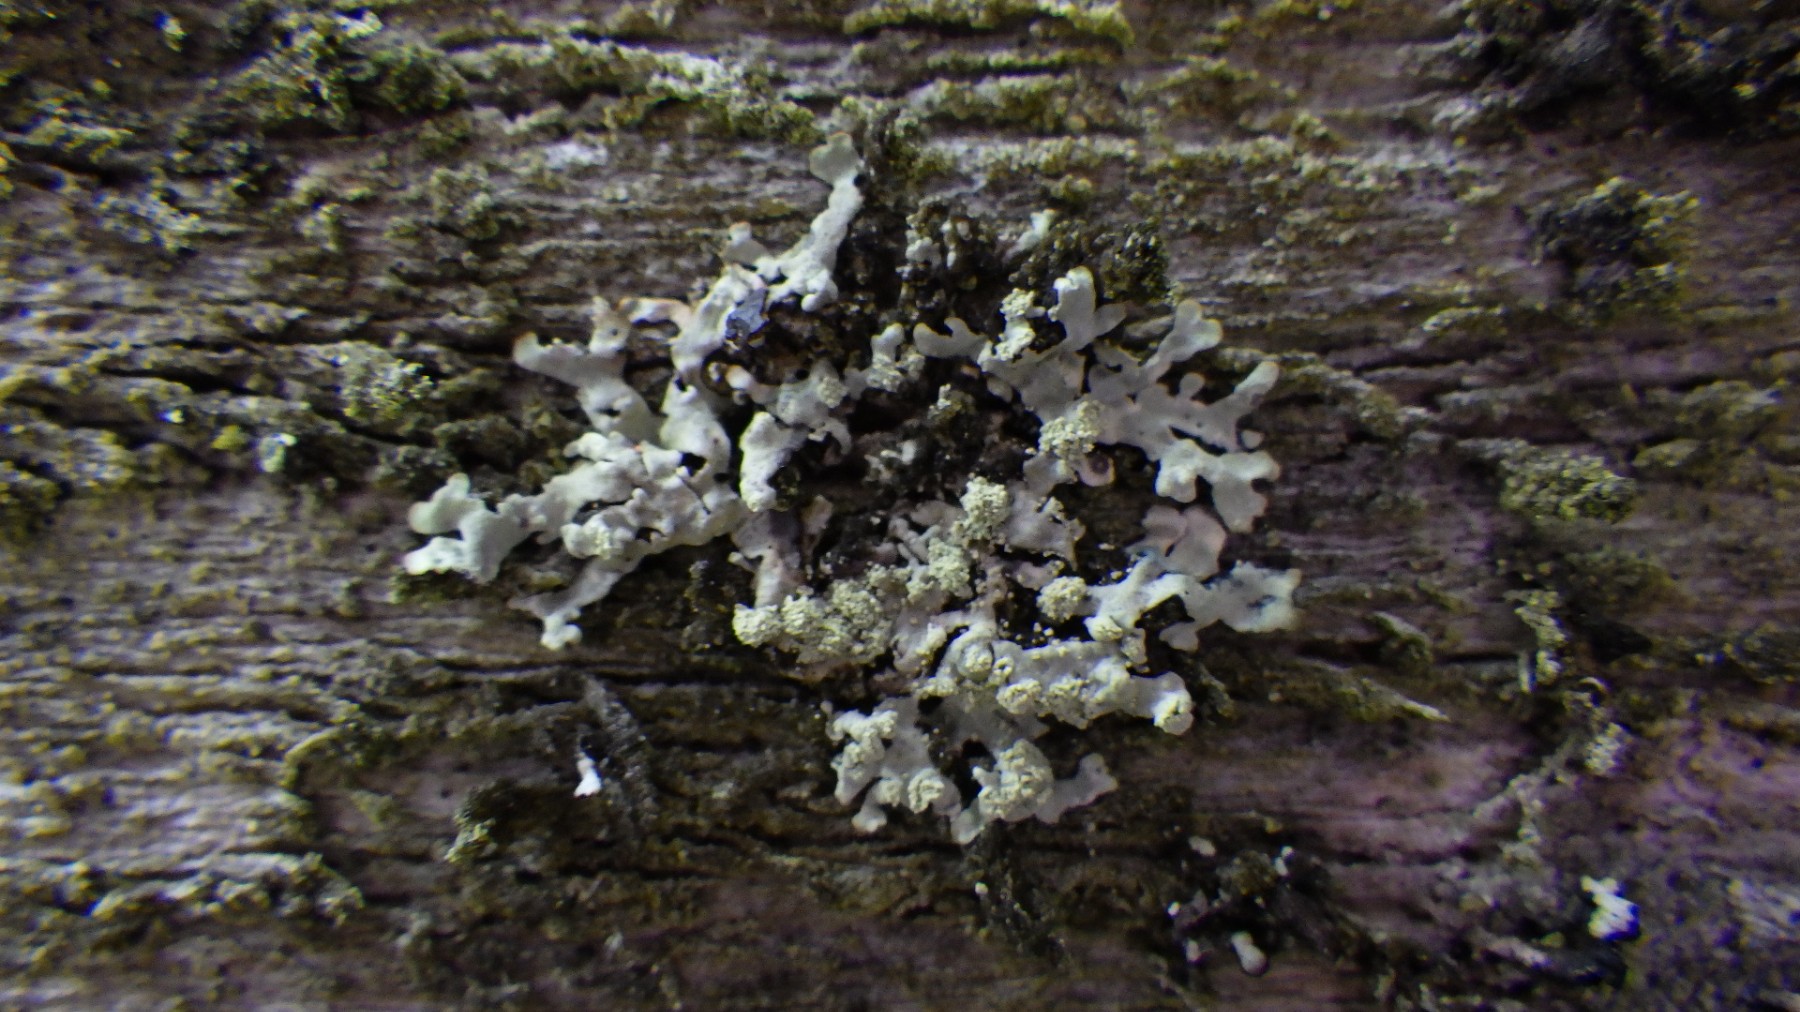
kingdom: Fungi
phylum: Ascomycota
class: Lecanoromycetes
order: Lecanorales
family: Parmeliaceae
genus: Parmeliopsis
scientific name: Parmeliopsis ambigua
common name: gul stolpelav
